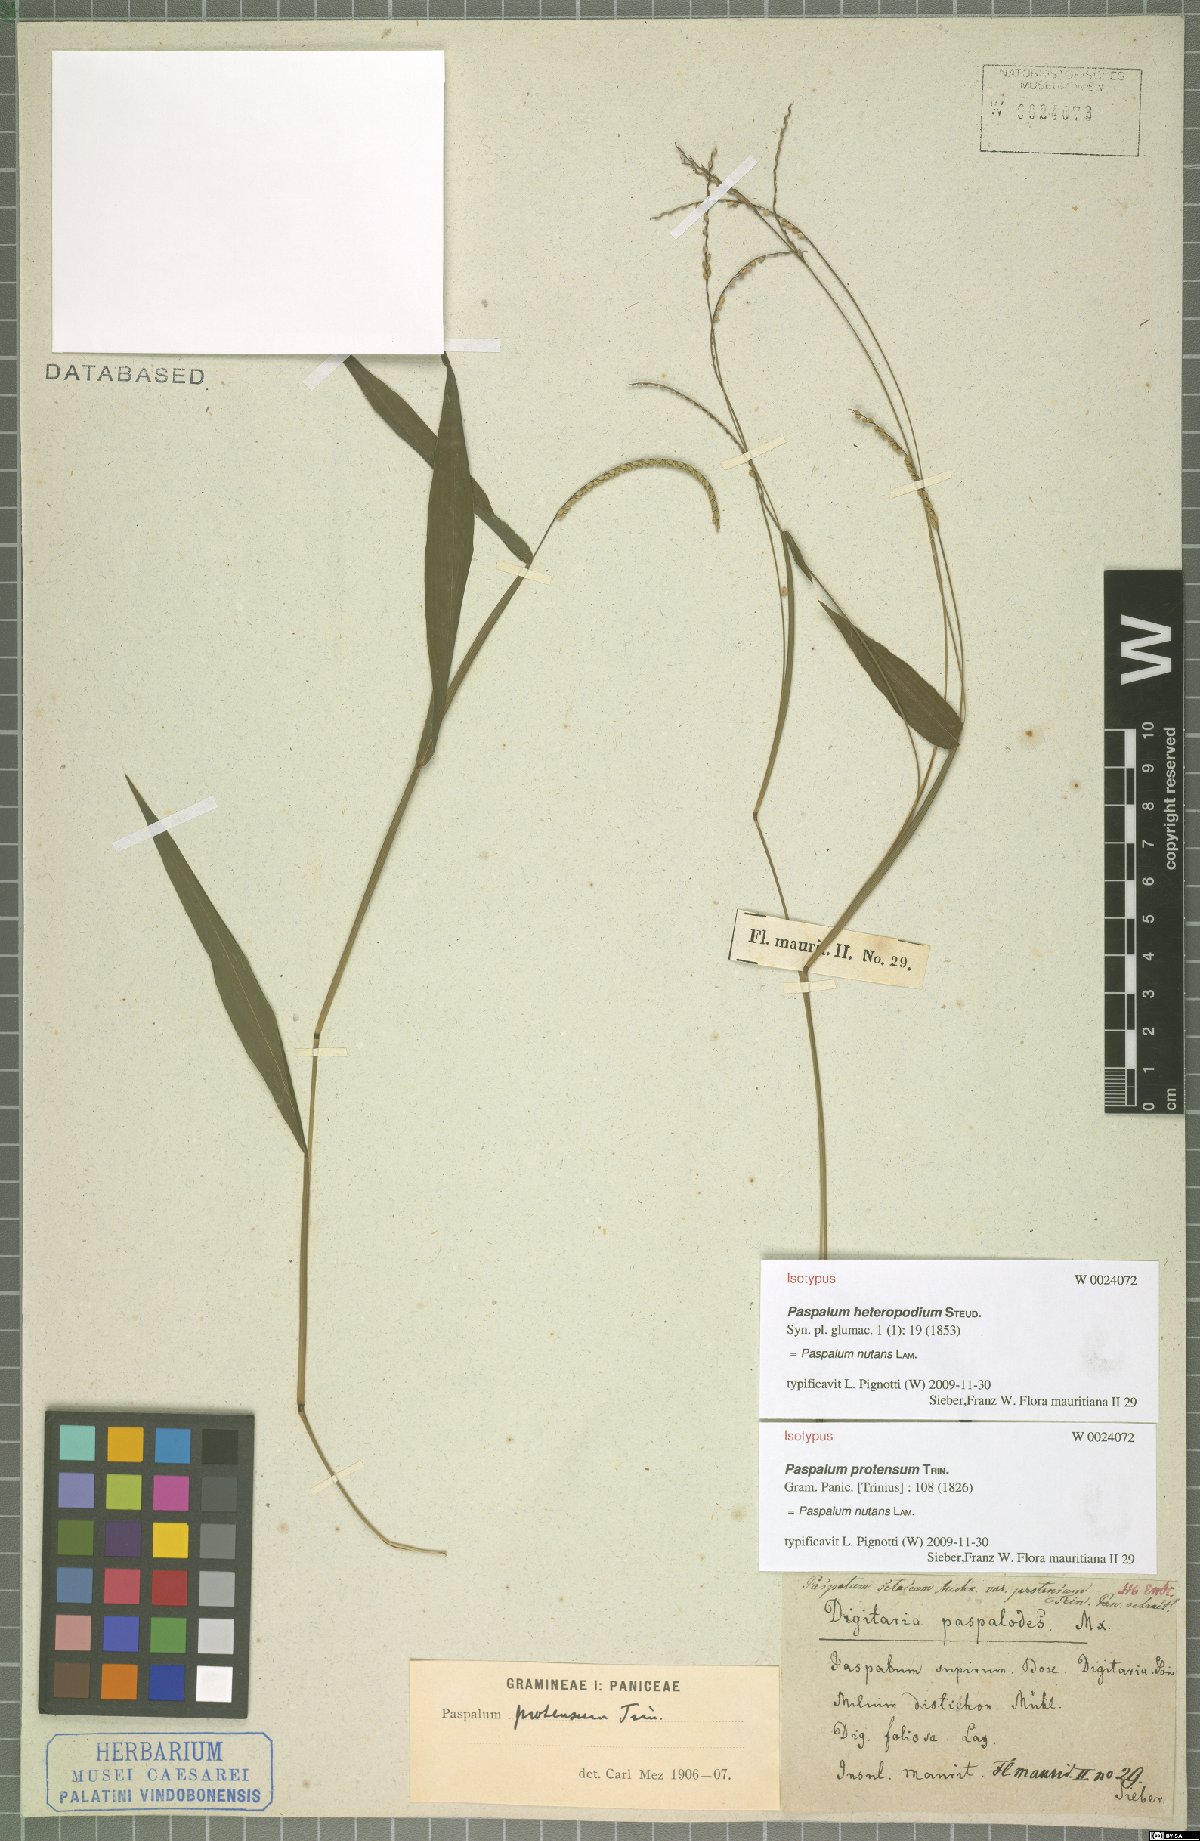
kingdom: Plantae
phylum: Tracheophyta
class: Liliopsida
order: Poales
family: Poaceae
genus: Paspalum
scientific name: Paspalum nutans
